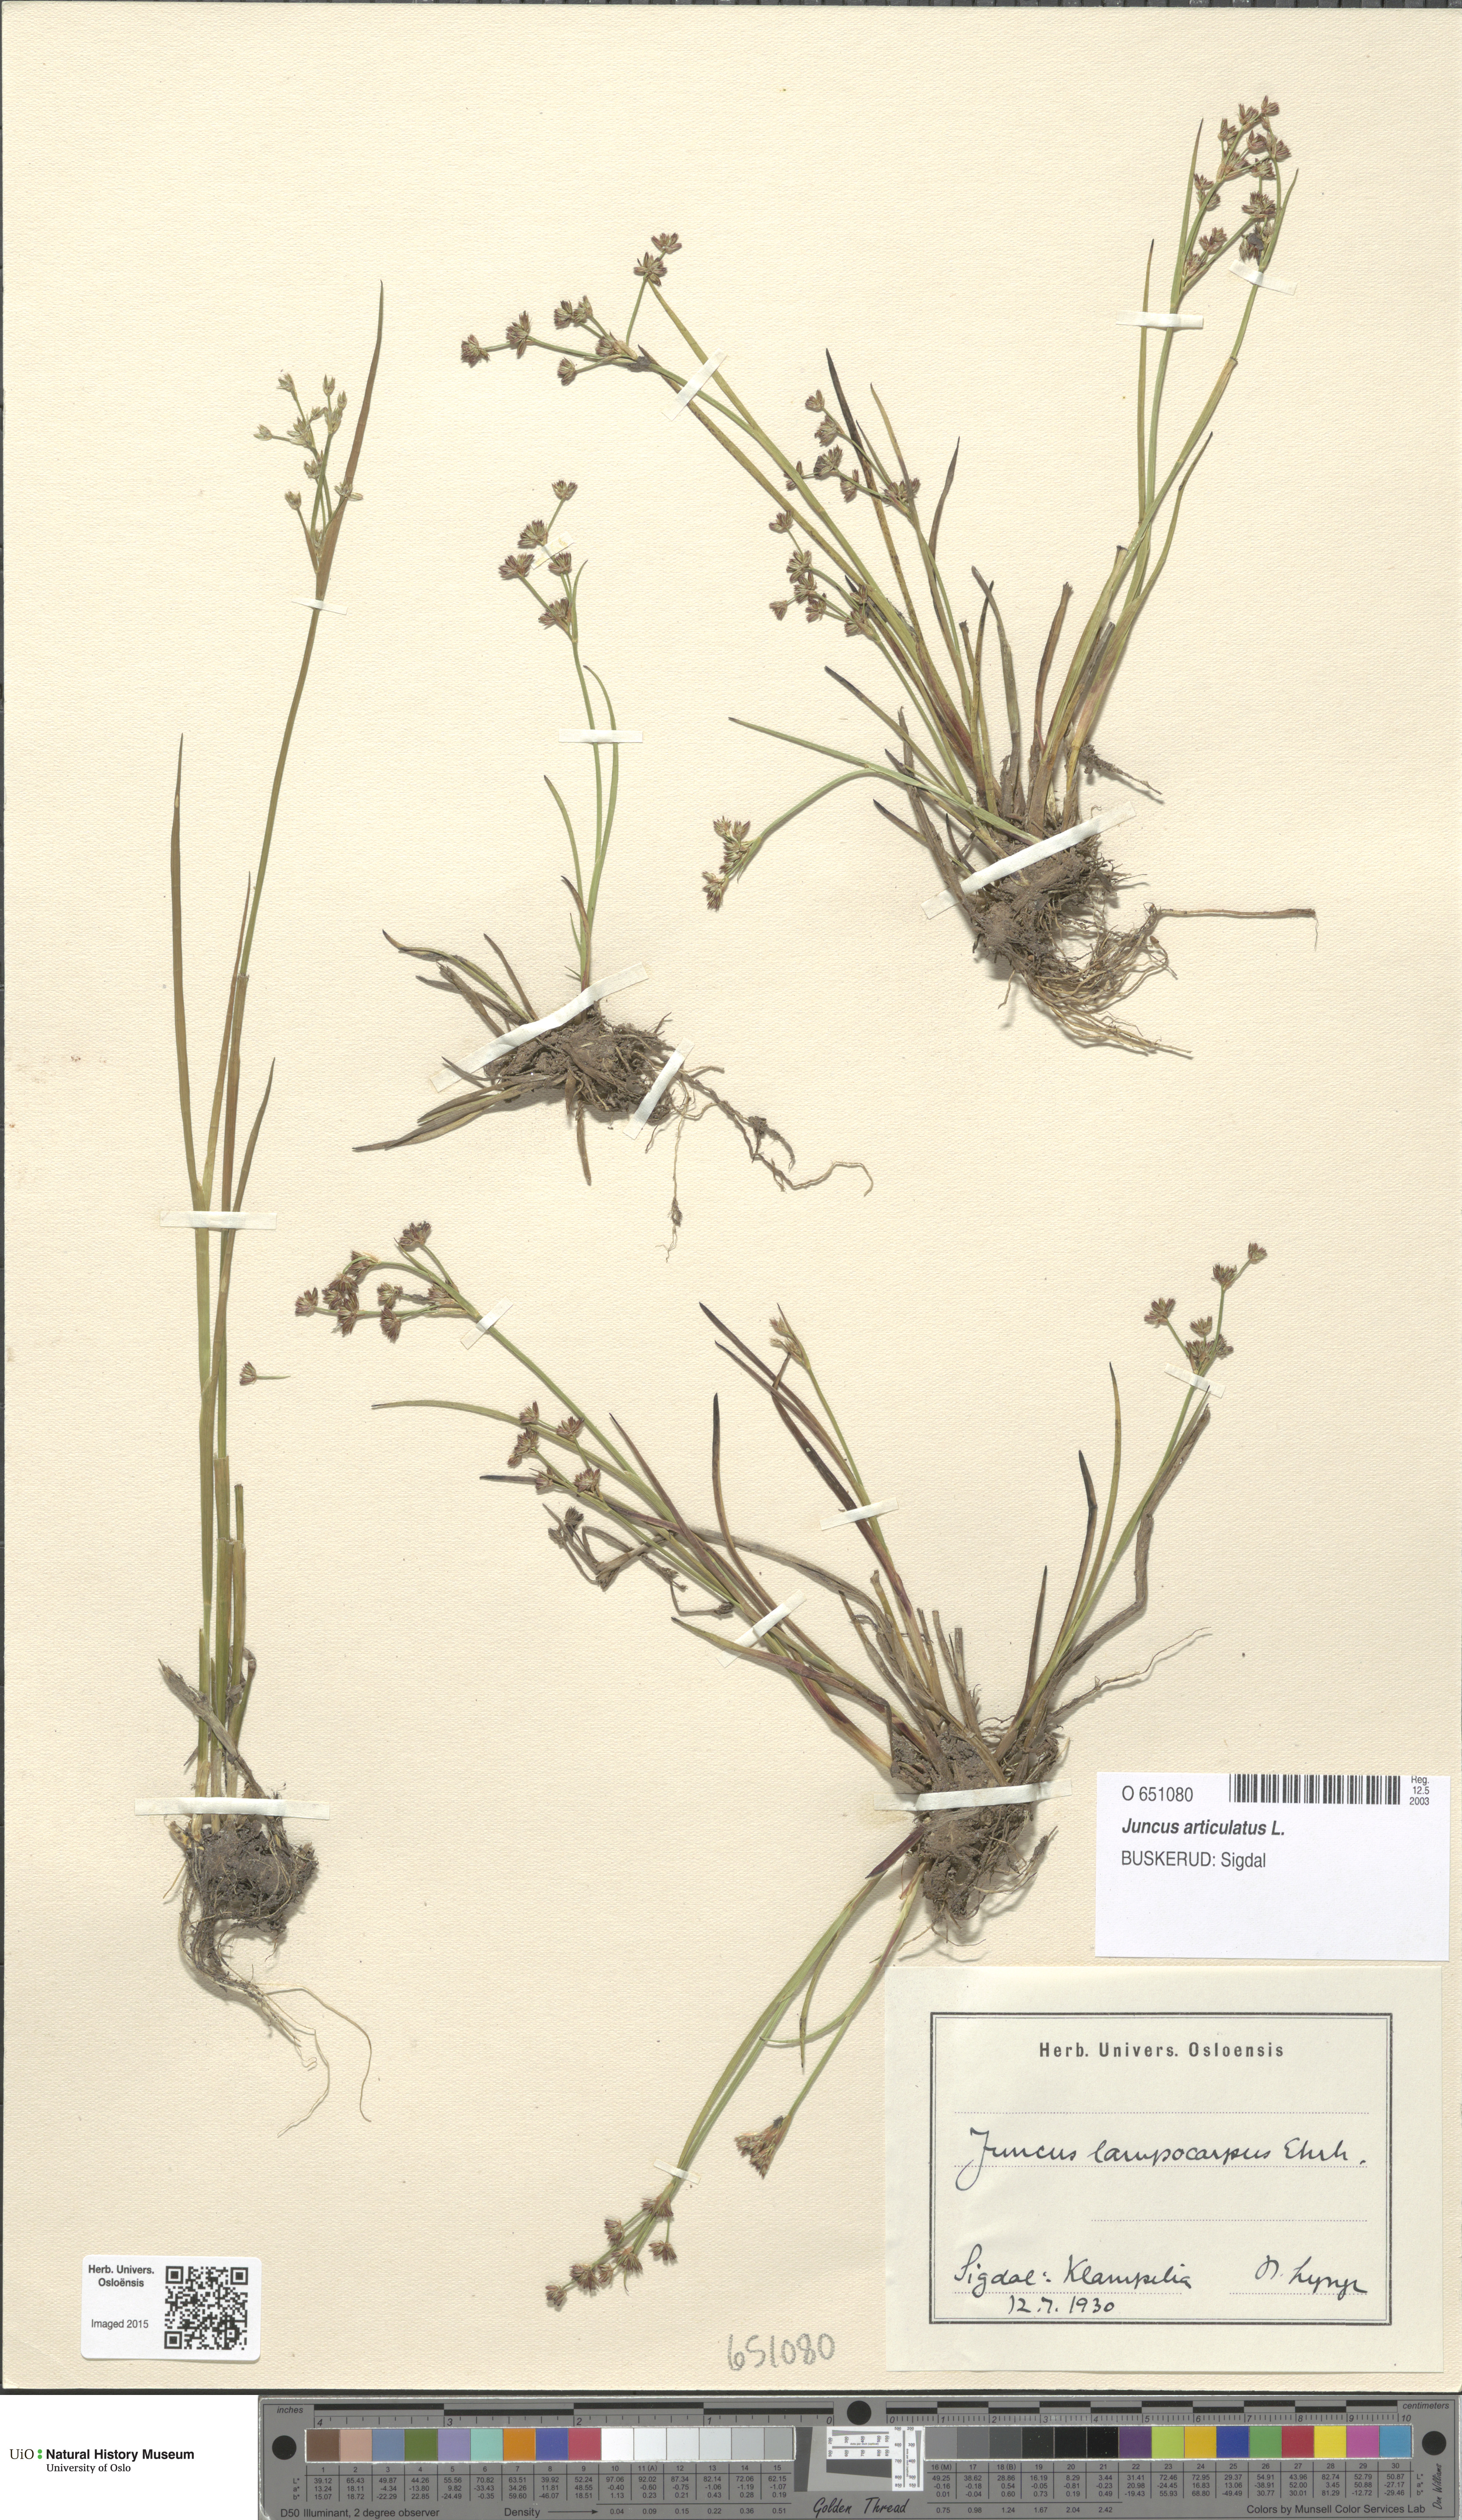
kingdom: Plantae
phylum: Tracheophyta
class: Liliopsida
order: Poales
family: Juncaceae
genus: Juncus
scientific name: Juncus articulatus
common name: Jointed rush
